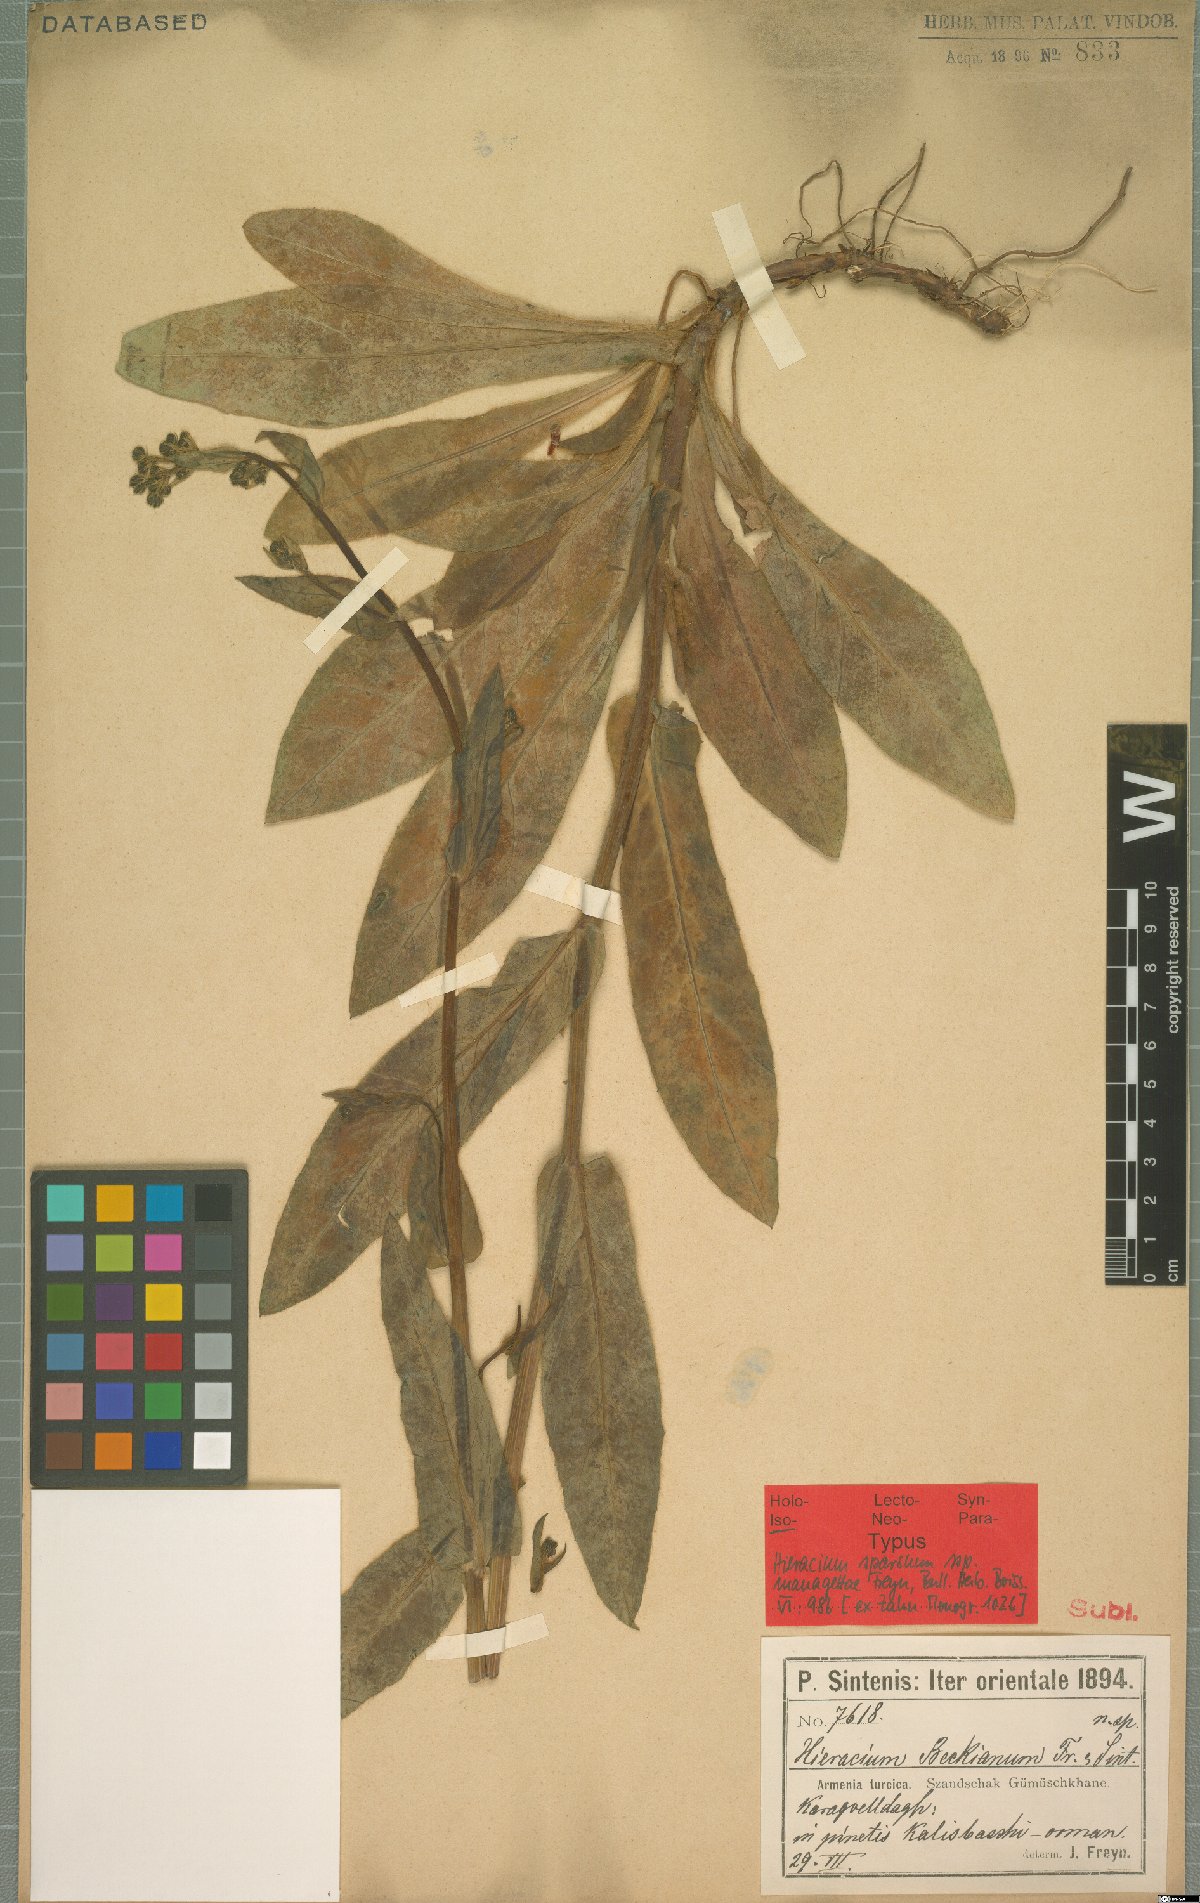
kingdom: Plantae
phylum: Tracheophyta
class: Magnoliopsida
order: Asterales
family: Asteraceae
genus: Hieracium
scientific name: Hieracium sparsum
